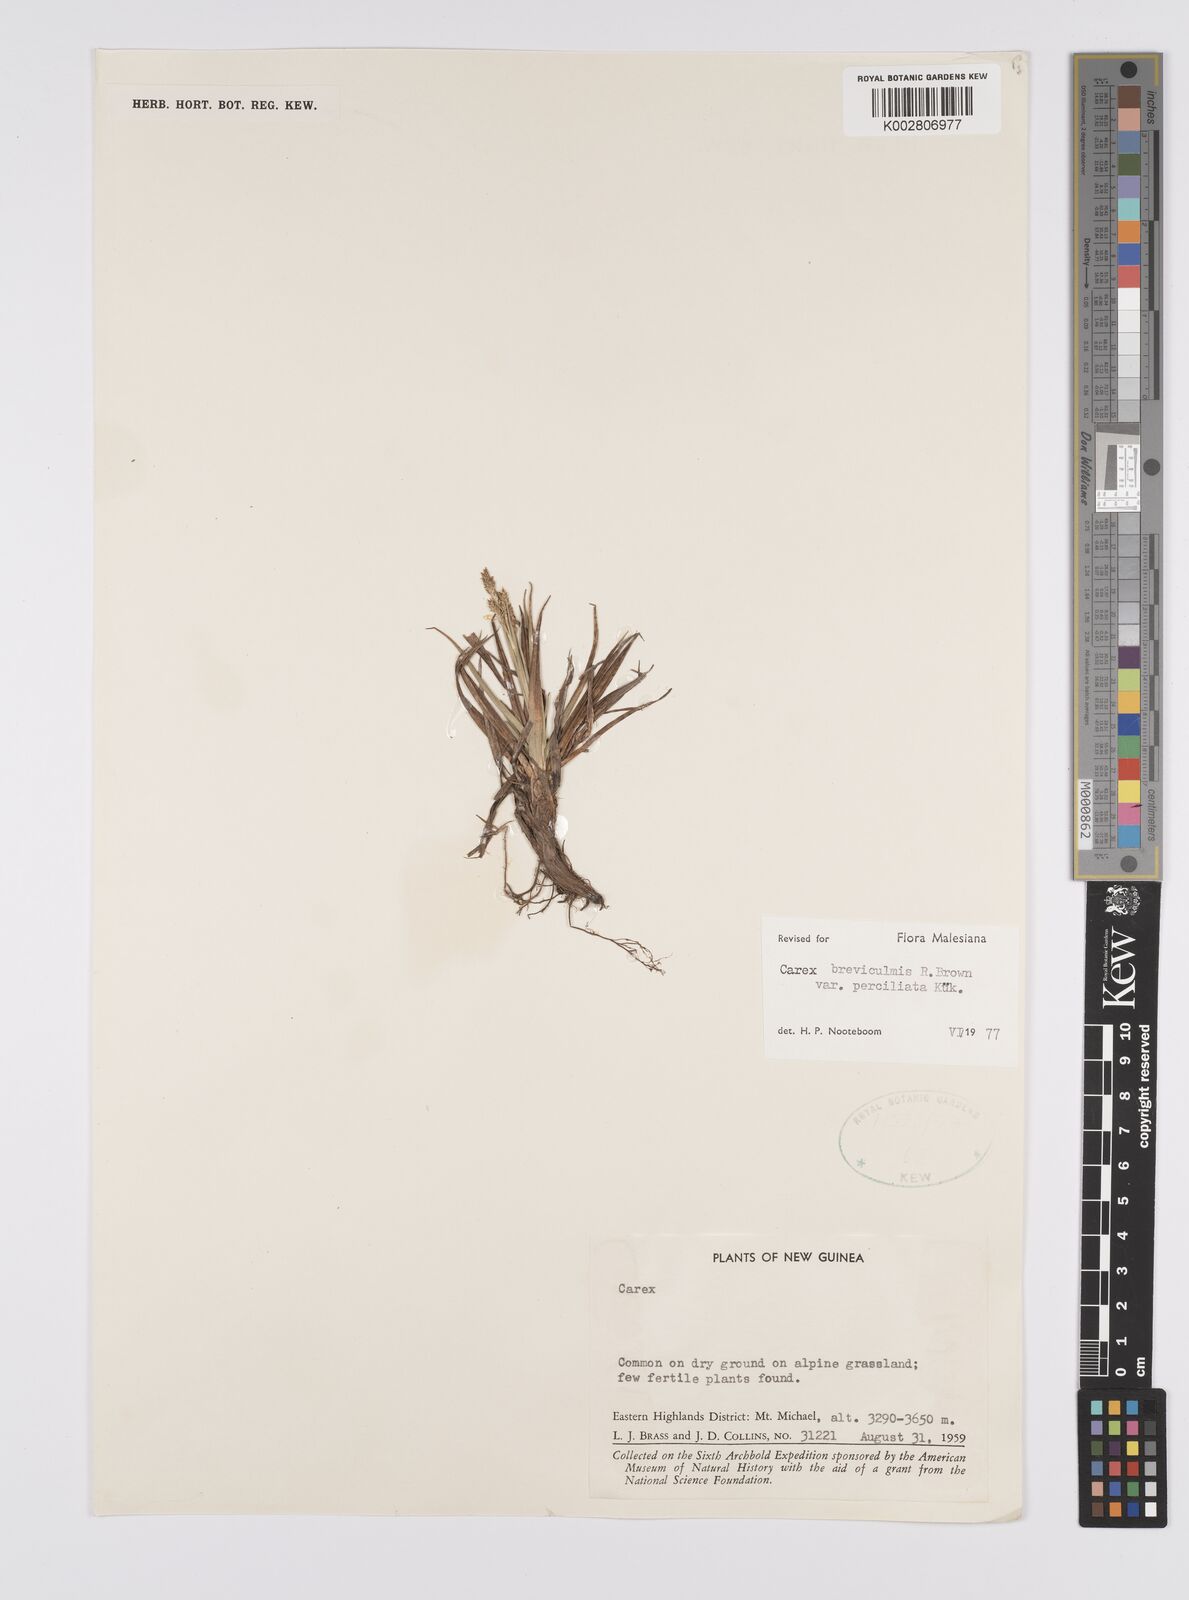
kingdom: Plantae
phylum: Tracheophyta
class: Liliopsida
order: Poales
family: Cyperaceae
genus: Carex
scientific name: Carex breviculmis
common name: Asian shortstem sedge
